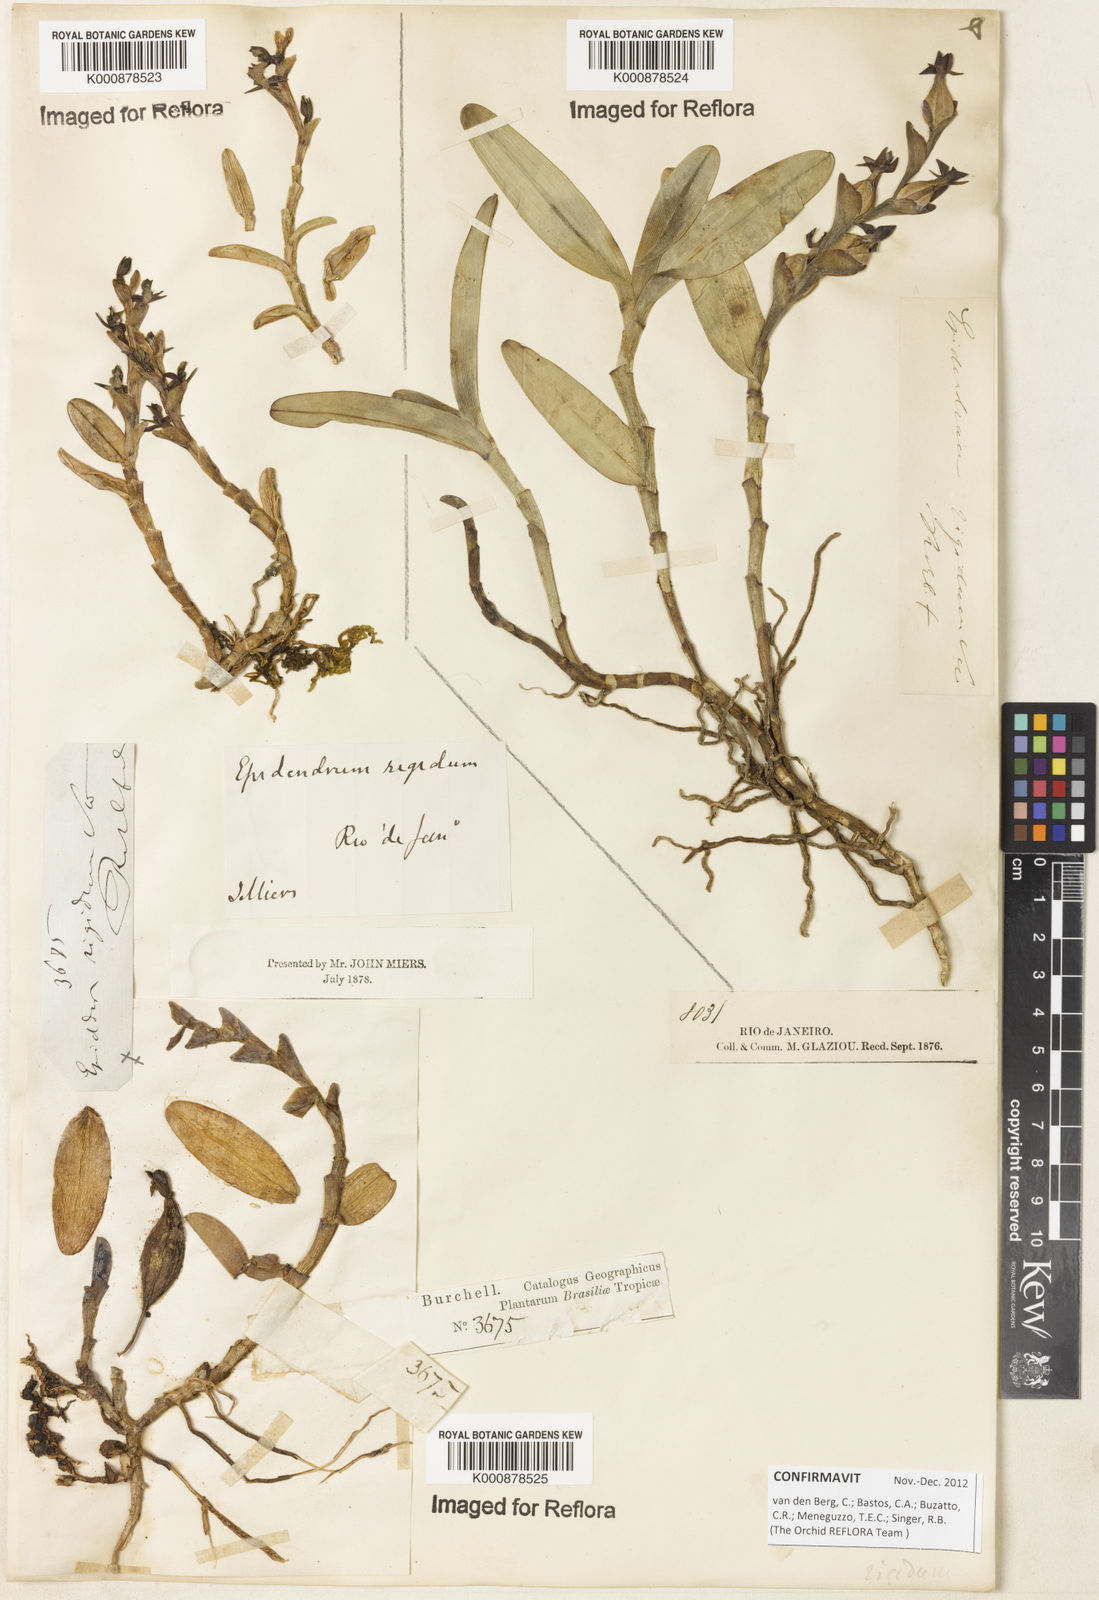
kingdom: Plantae
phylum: Tracheophyta
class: Liliopsida
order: Asparagales
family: Orchidaceae
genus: Epidendrum
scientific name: Epidendrum rigidum
